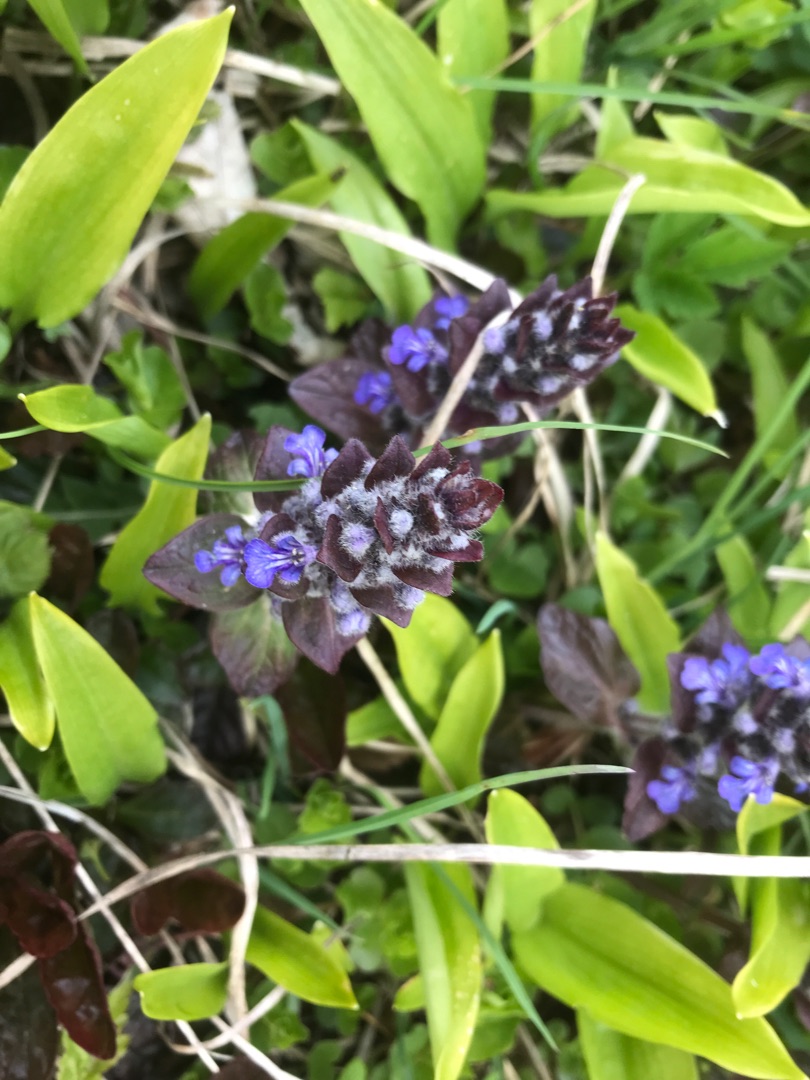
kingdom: Plantae
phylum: Tracheophyta
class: Magnoliopsida
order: Lamiales
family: Lamiaceae
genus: Ajuga
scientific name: Ajuga reptans
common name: Krybende læbeløs
